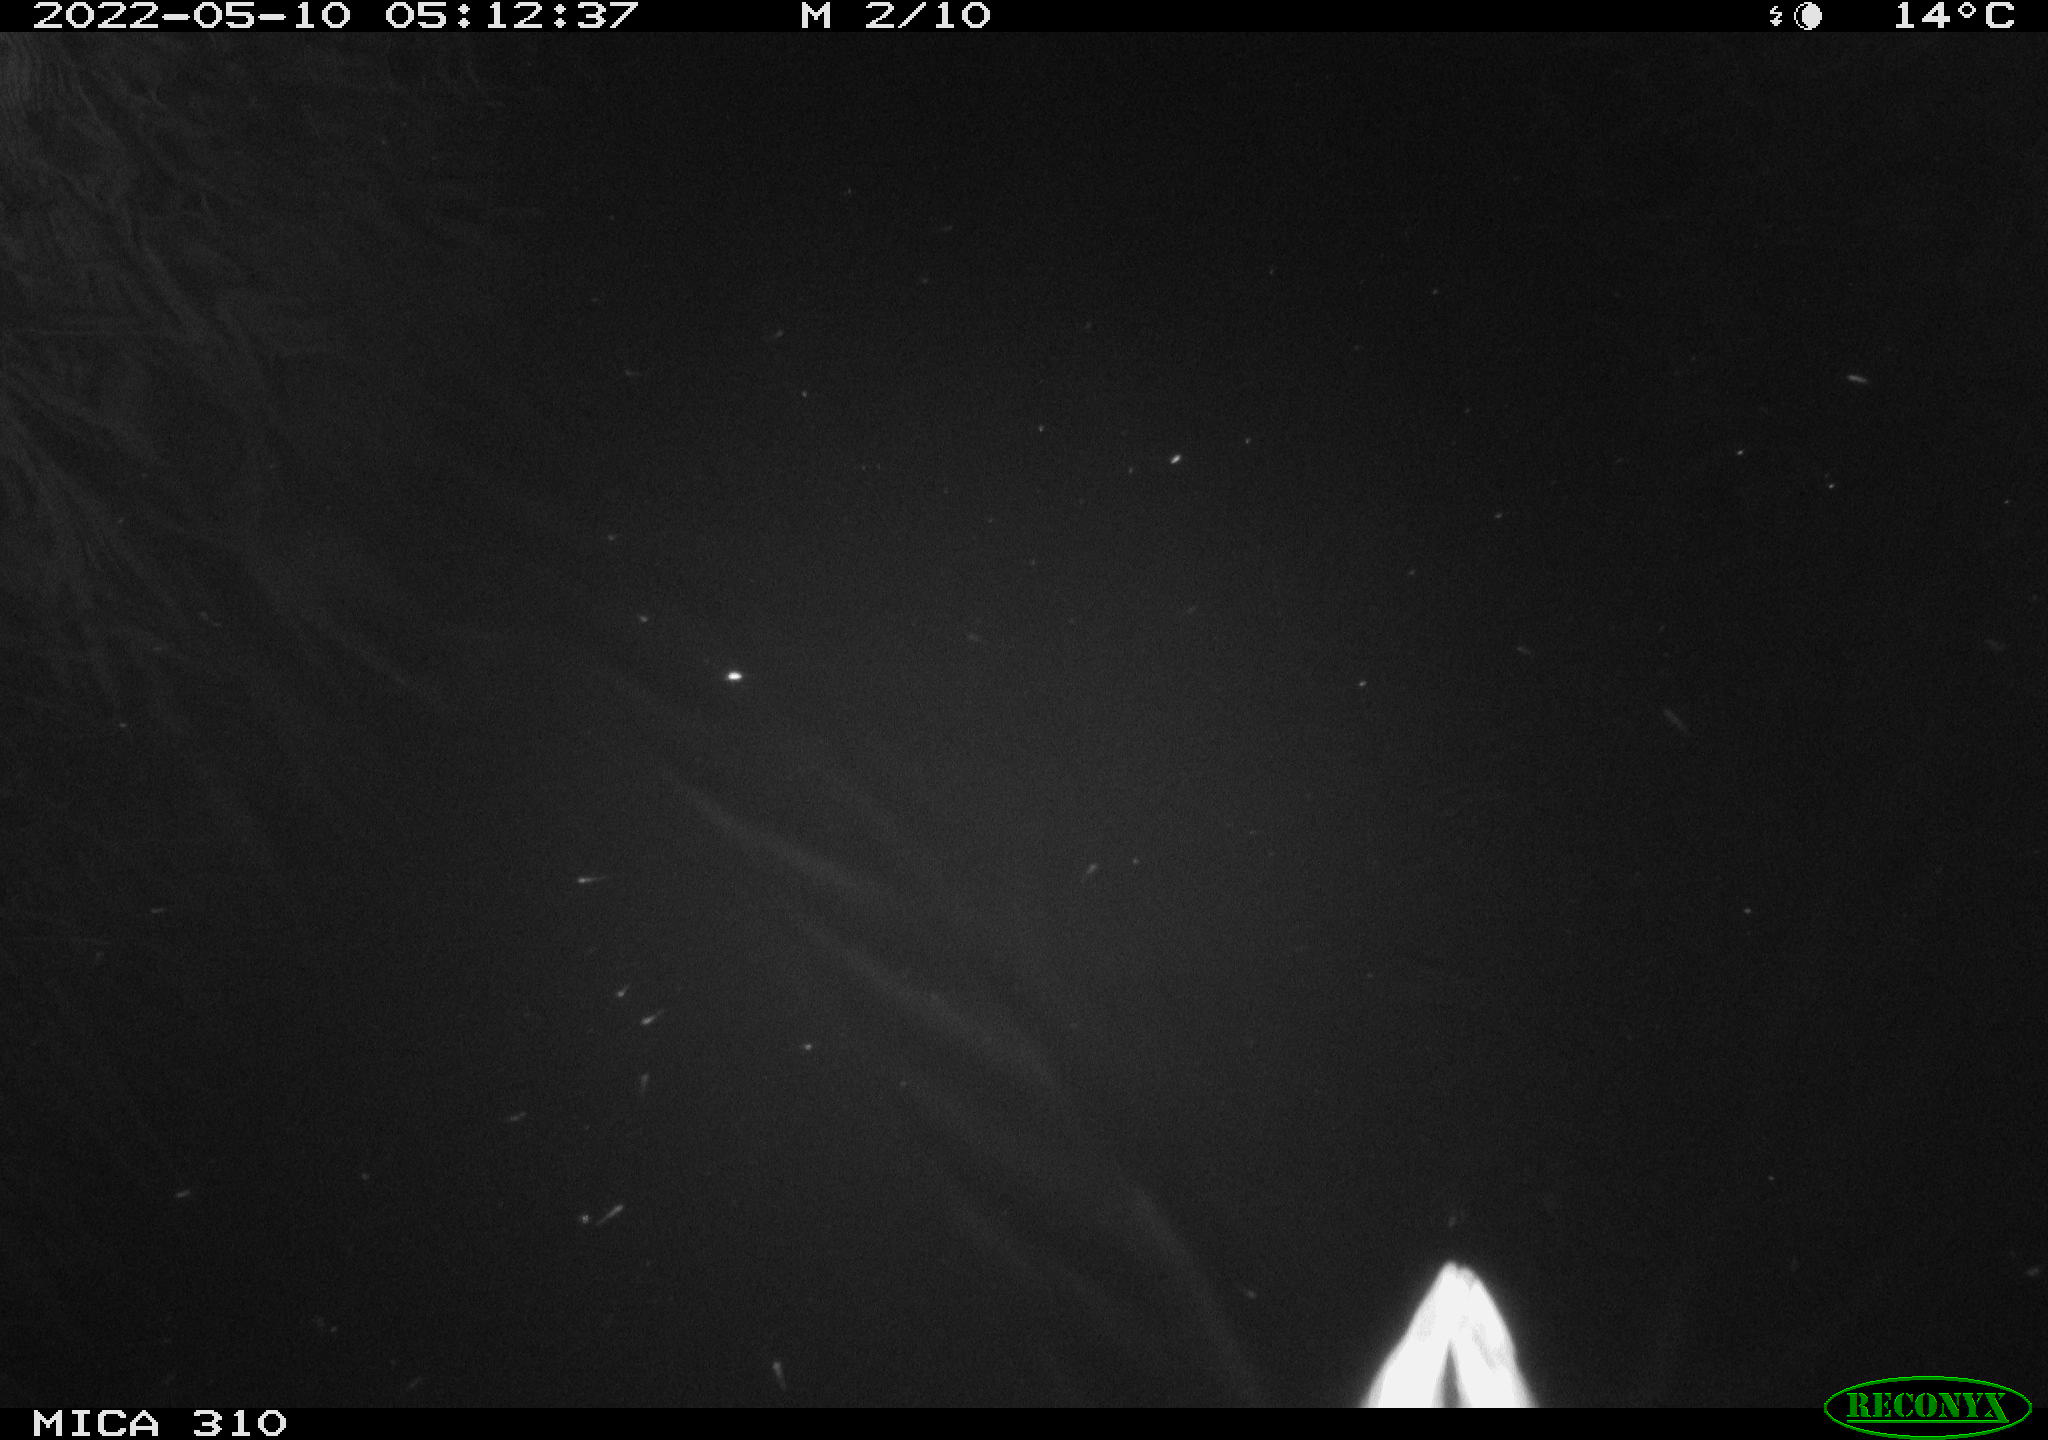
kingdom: Animalia
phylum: Chordata
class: Aves
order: Anseriformes
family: Anatidae
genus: Anas
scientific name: Anas platyrhynchos
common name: Mallard
